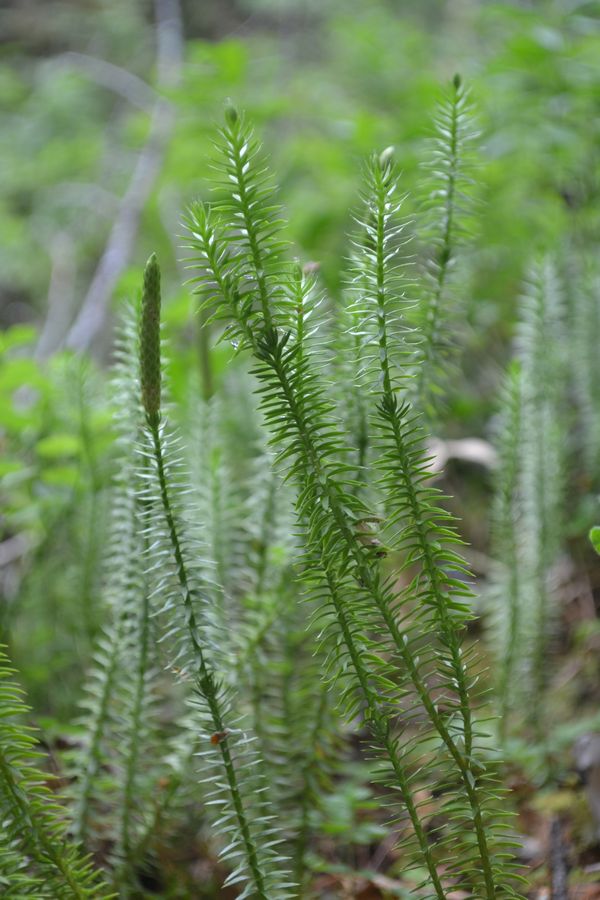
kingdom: Plantae
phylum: Tracheophyta
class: Lycopodiopsida
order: Lycopodiales
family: Lycopodiaceae
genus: Spinulum
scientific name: Spinulum annotinum
